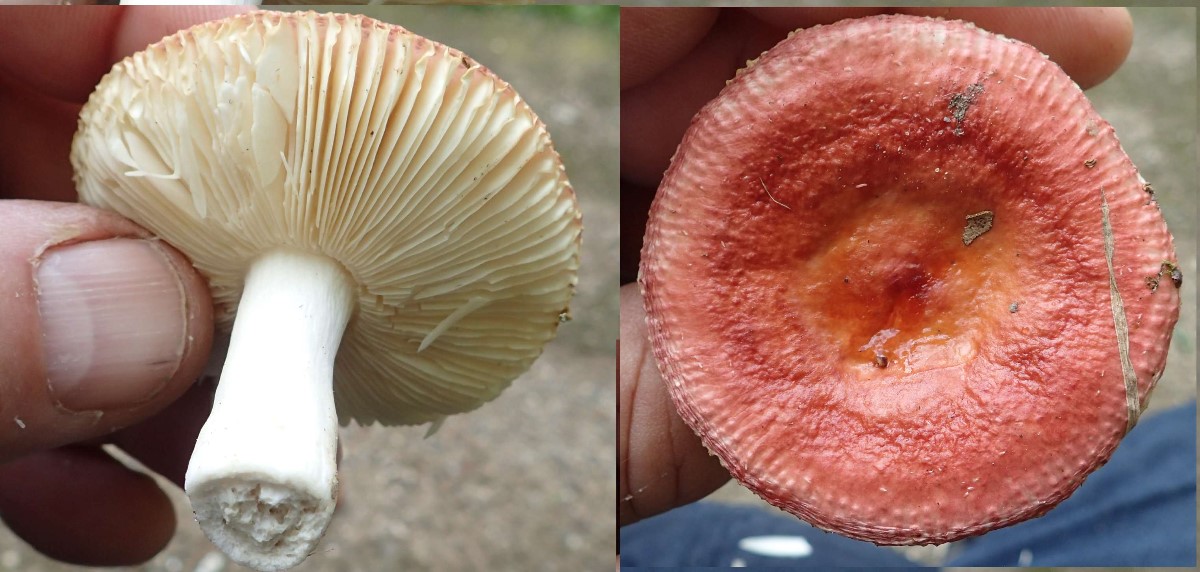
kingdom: Fungi
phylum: Basidiomycota
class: Agaricomycetes
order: Russulales
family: Russulaceae
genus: Russula
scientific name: Russula velenovskyi
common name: orangerød skørhat
